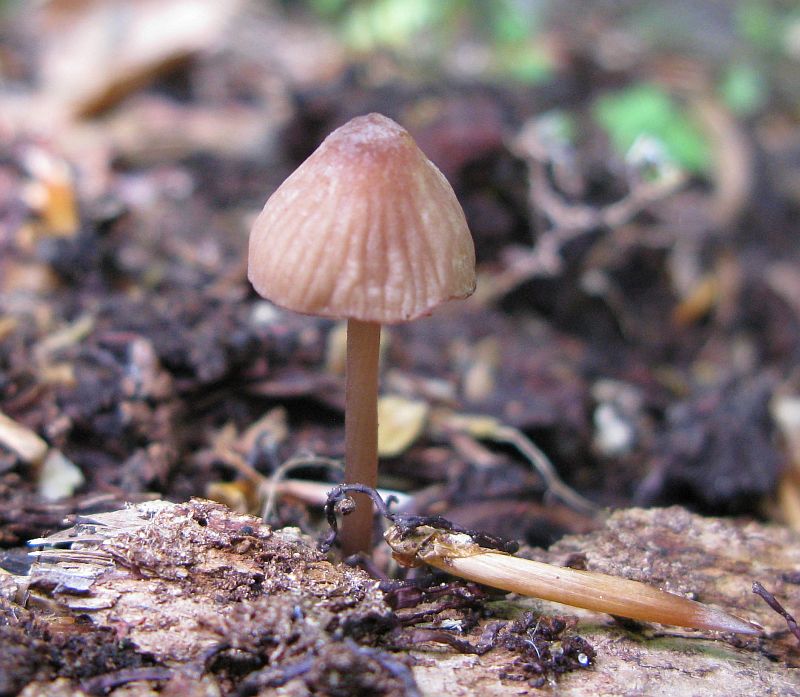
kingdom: Fungi
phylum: Basidiomycota
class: Agaricomycetes
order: Agaricales
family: Mycenaceae
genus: Mycena
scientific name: Mycena sanguinolenta
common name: rødmælket huesvamp
